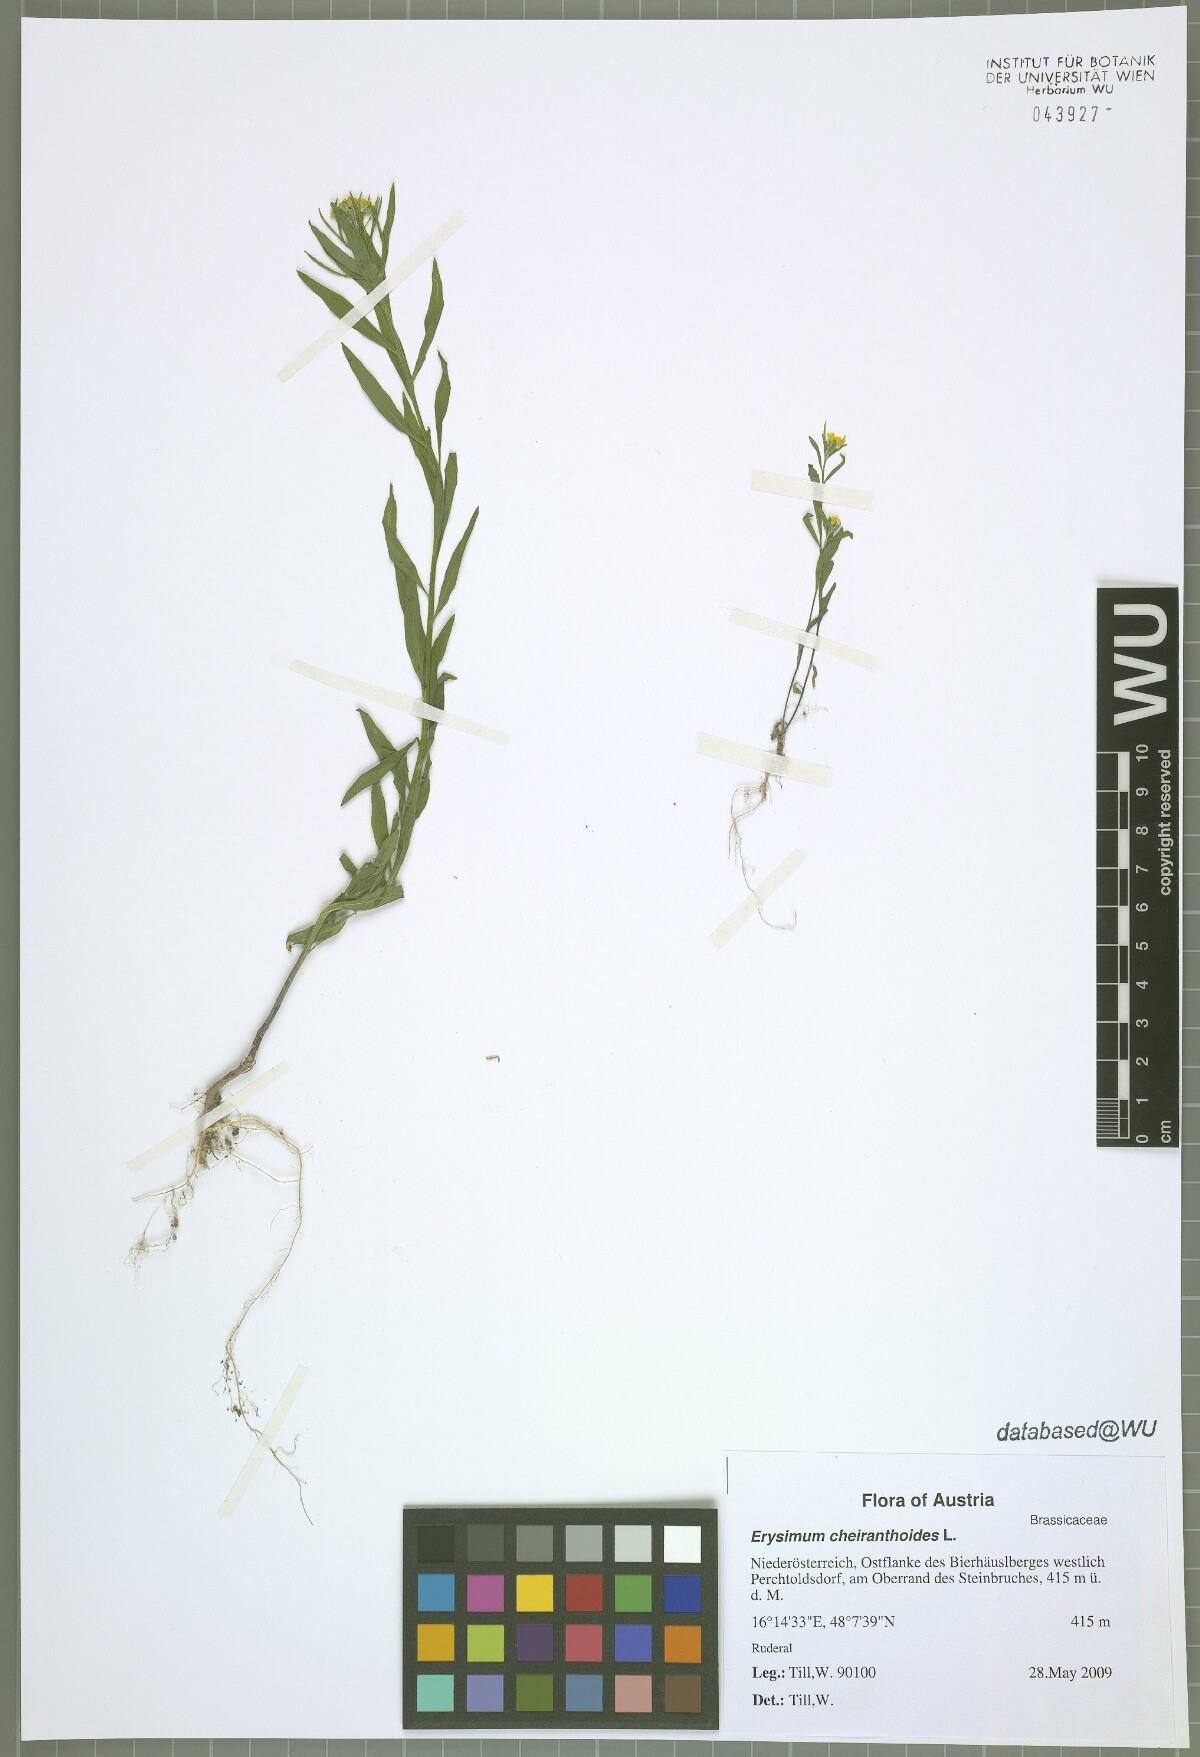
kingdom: Plantae
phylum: Tracheophyta
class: Magnoliopsida
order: Brassicales
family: Brassicaceae
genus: Erysimum
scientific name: Erysimum cheiranthoides
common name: Treacle mustard
